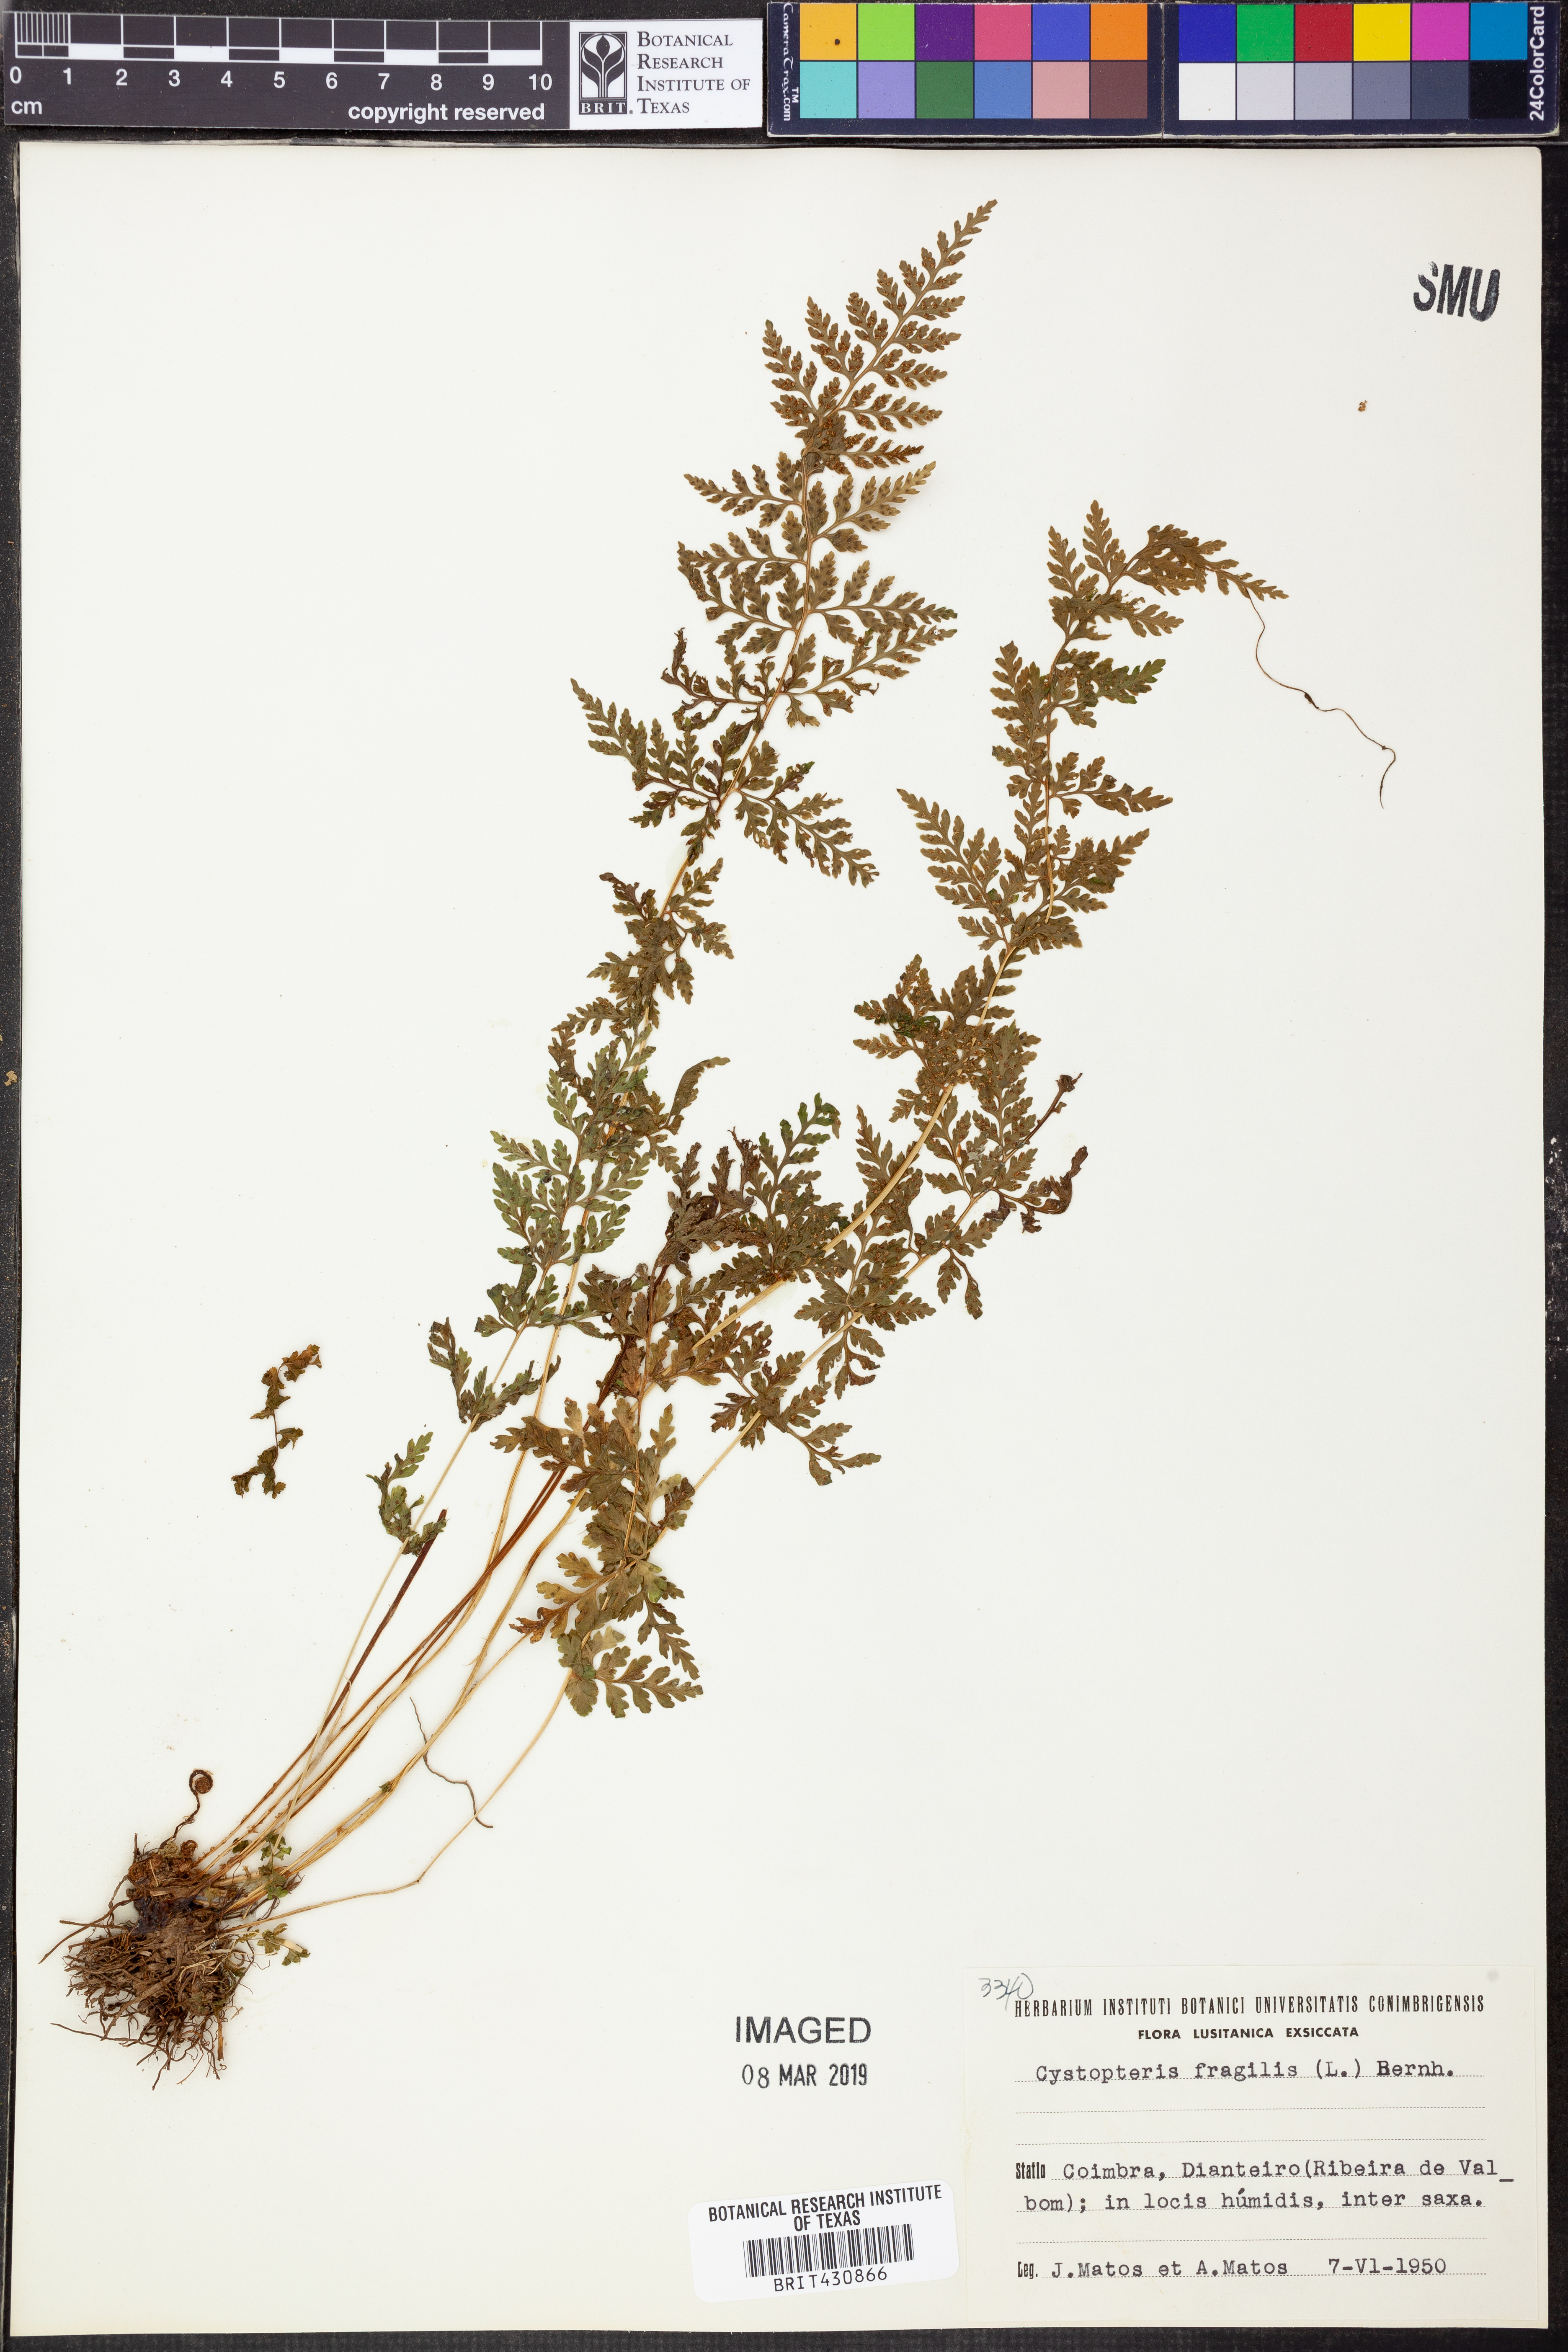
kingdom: Plantae
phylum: Tracheophyta
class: Polypodiopsida
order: Polypodiales
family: Cystopteridaceae
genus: Cystopteris
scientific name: Cystopteris fragilis
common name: Brittle bladder fern
